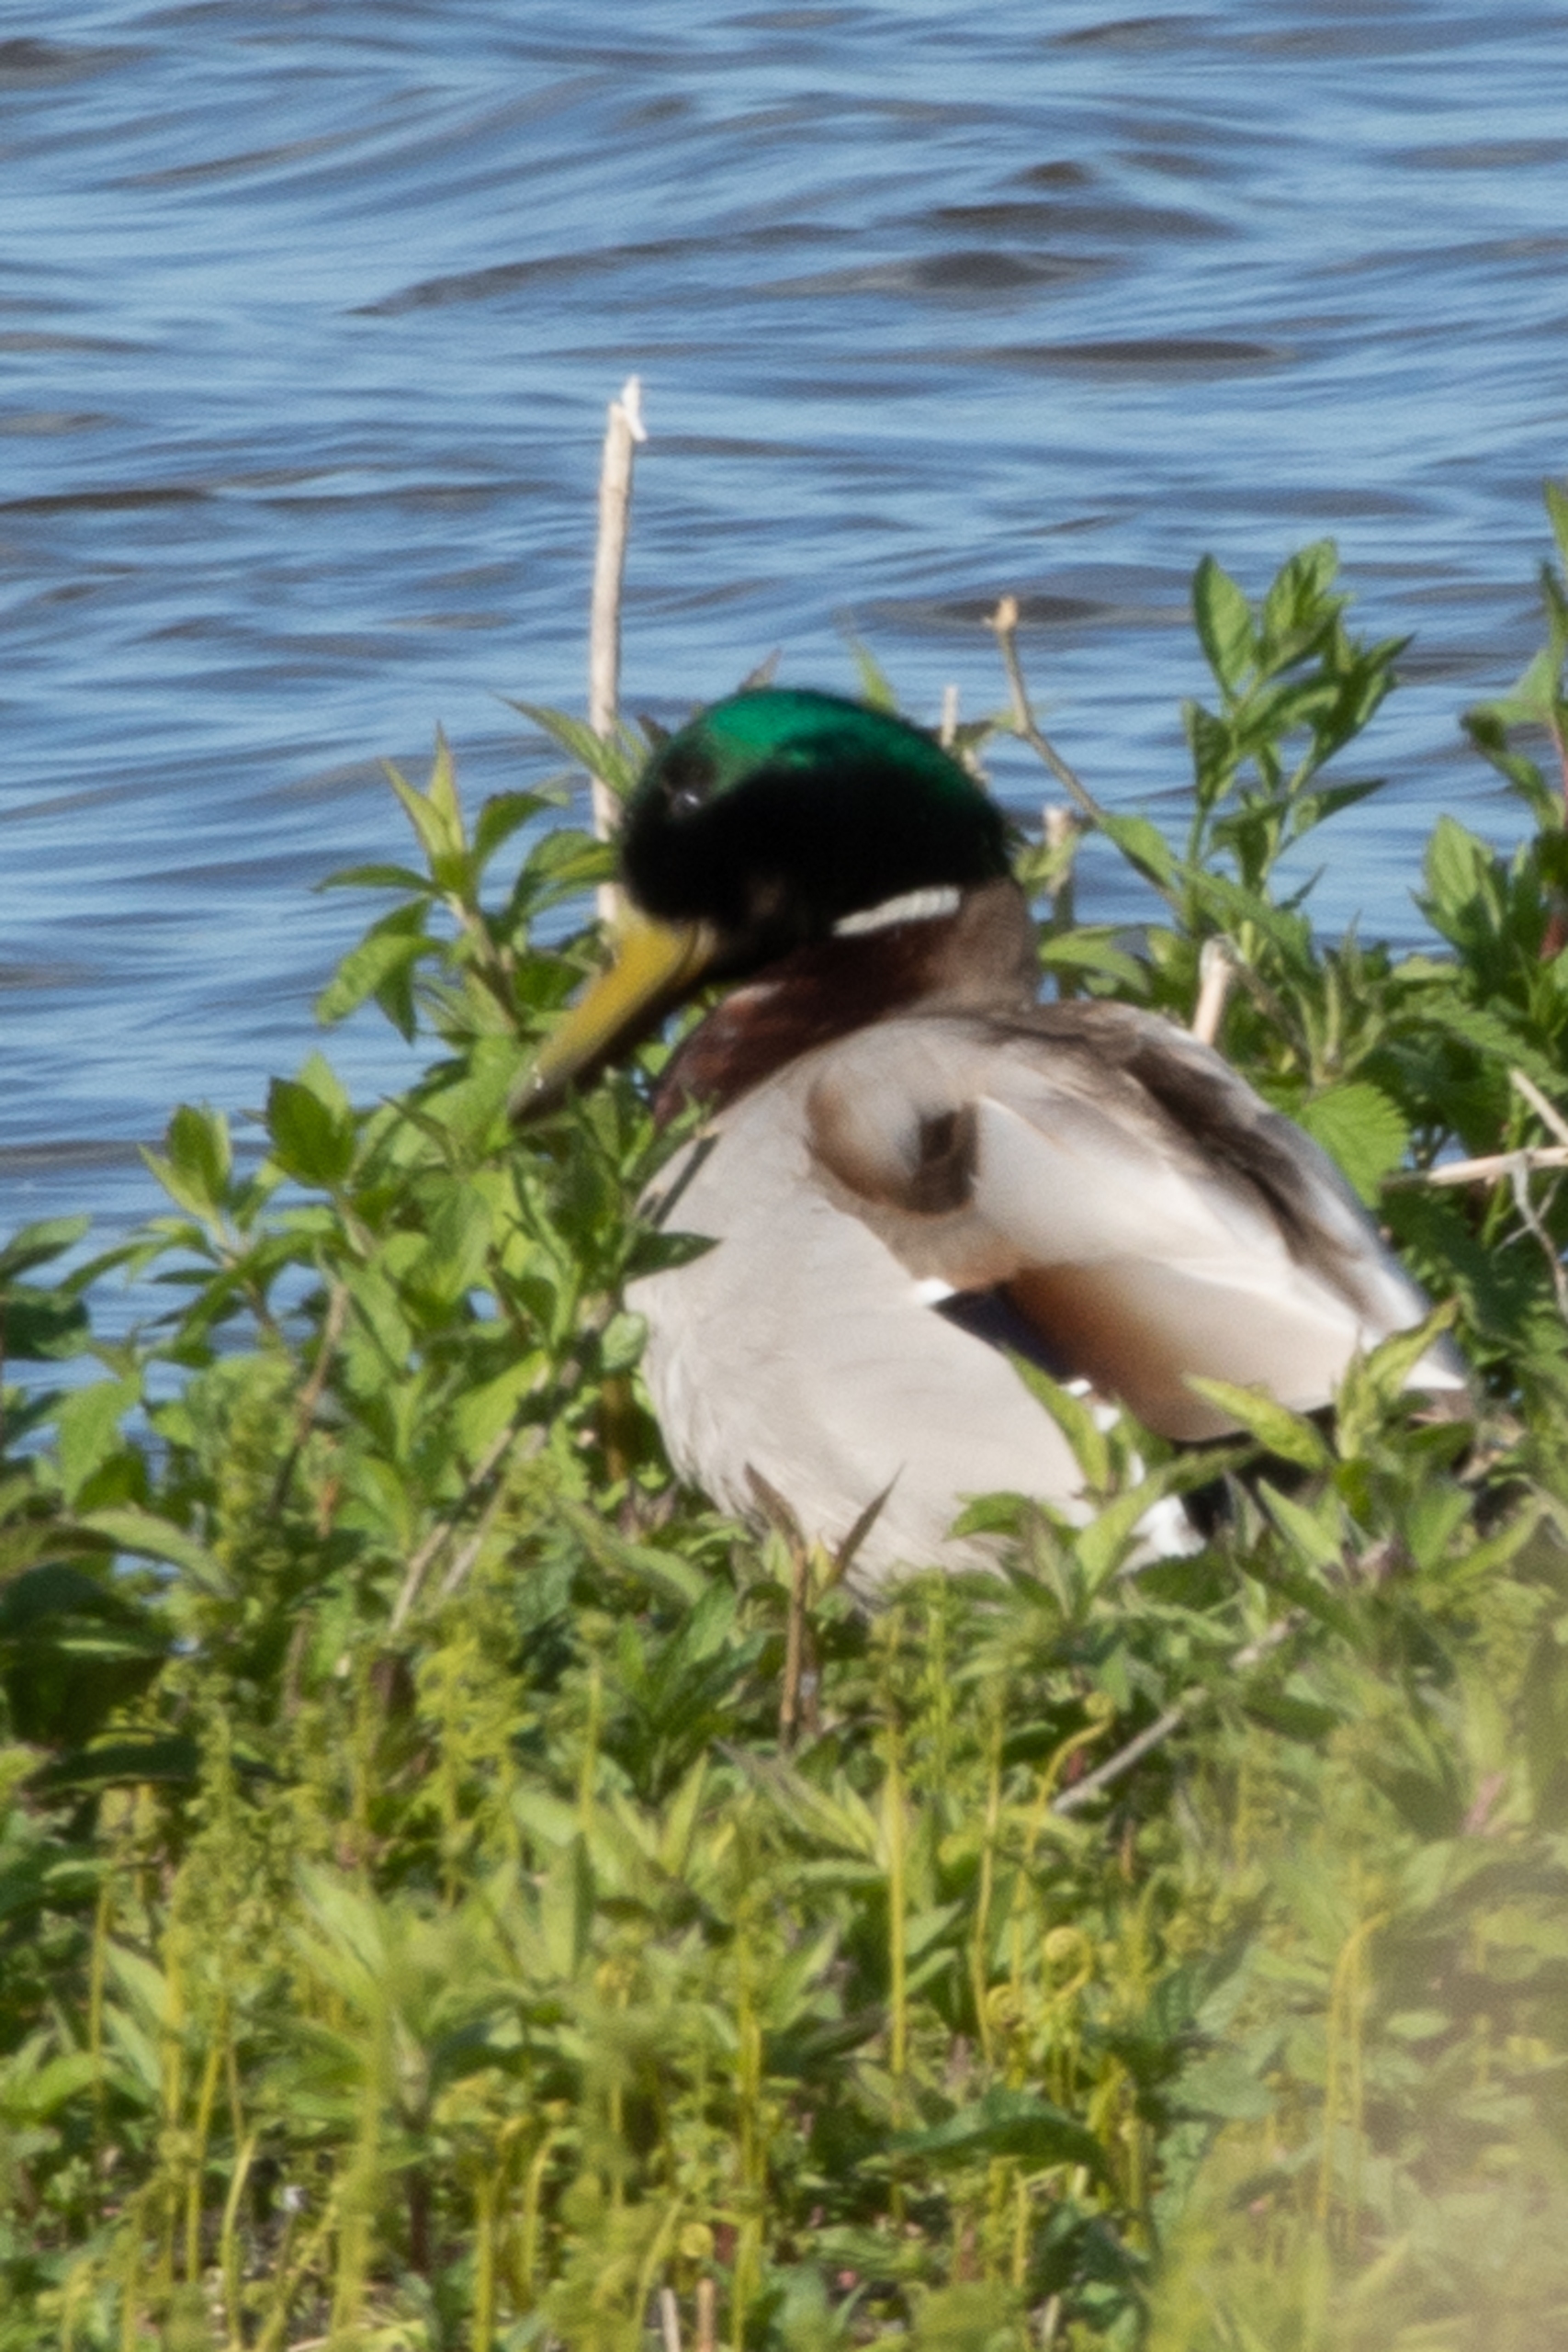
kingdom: Animalia
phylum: Chordata
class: Aves
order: Anseriformes
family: Anatidae
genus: Anas
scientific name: Anas platyrhynchos
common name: Gråand
